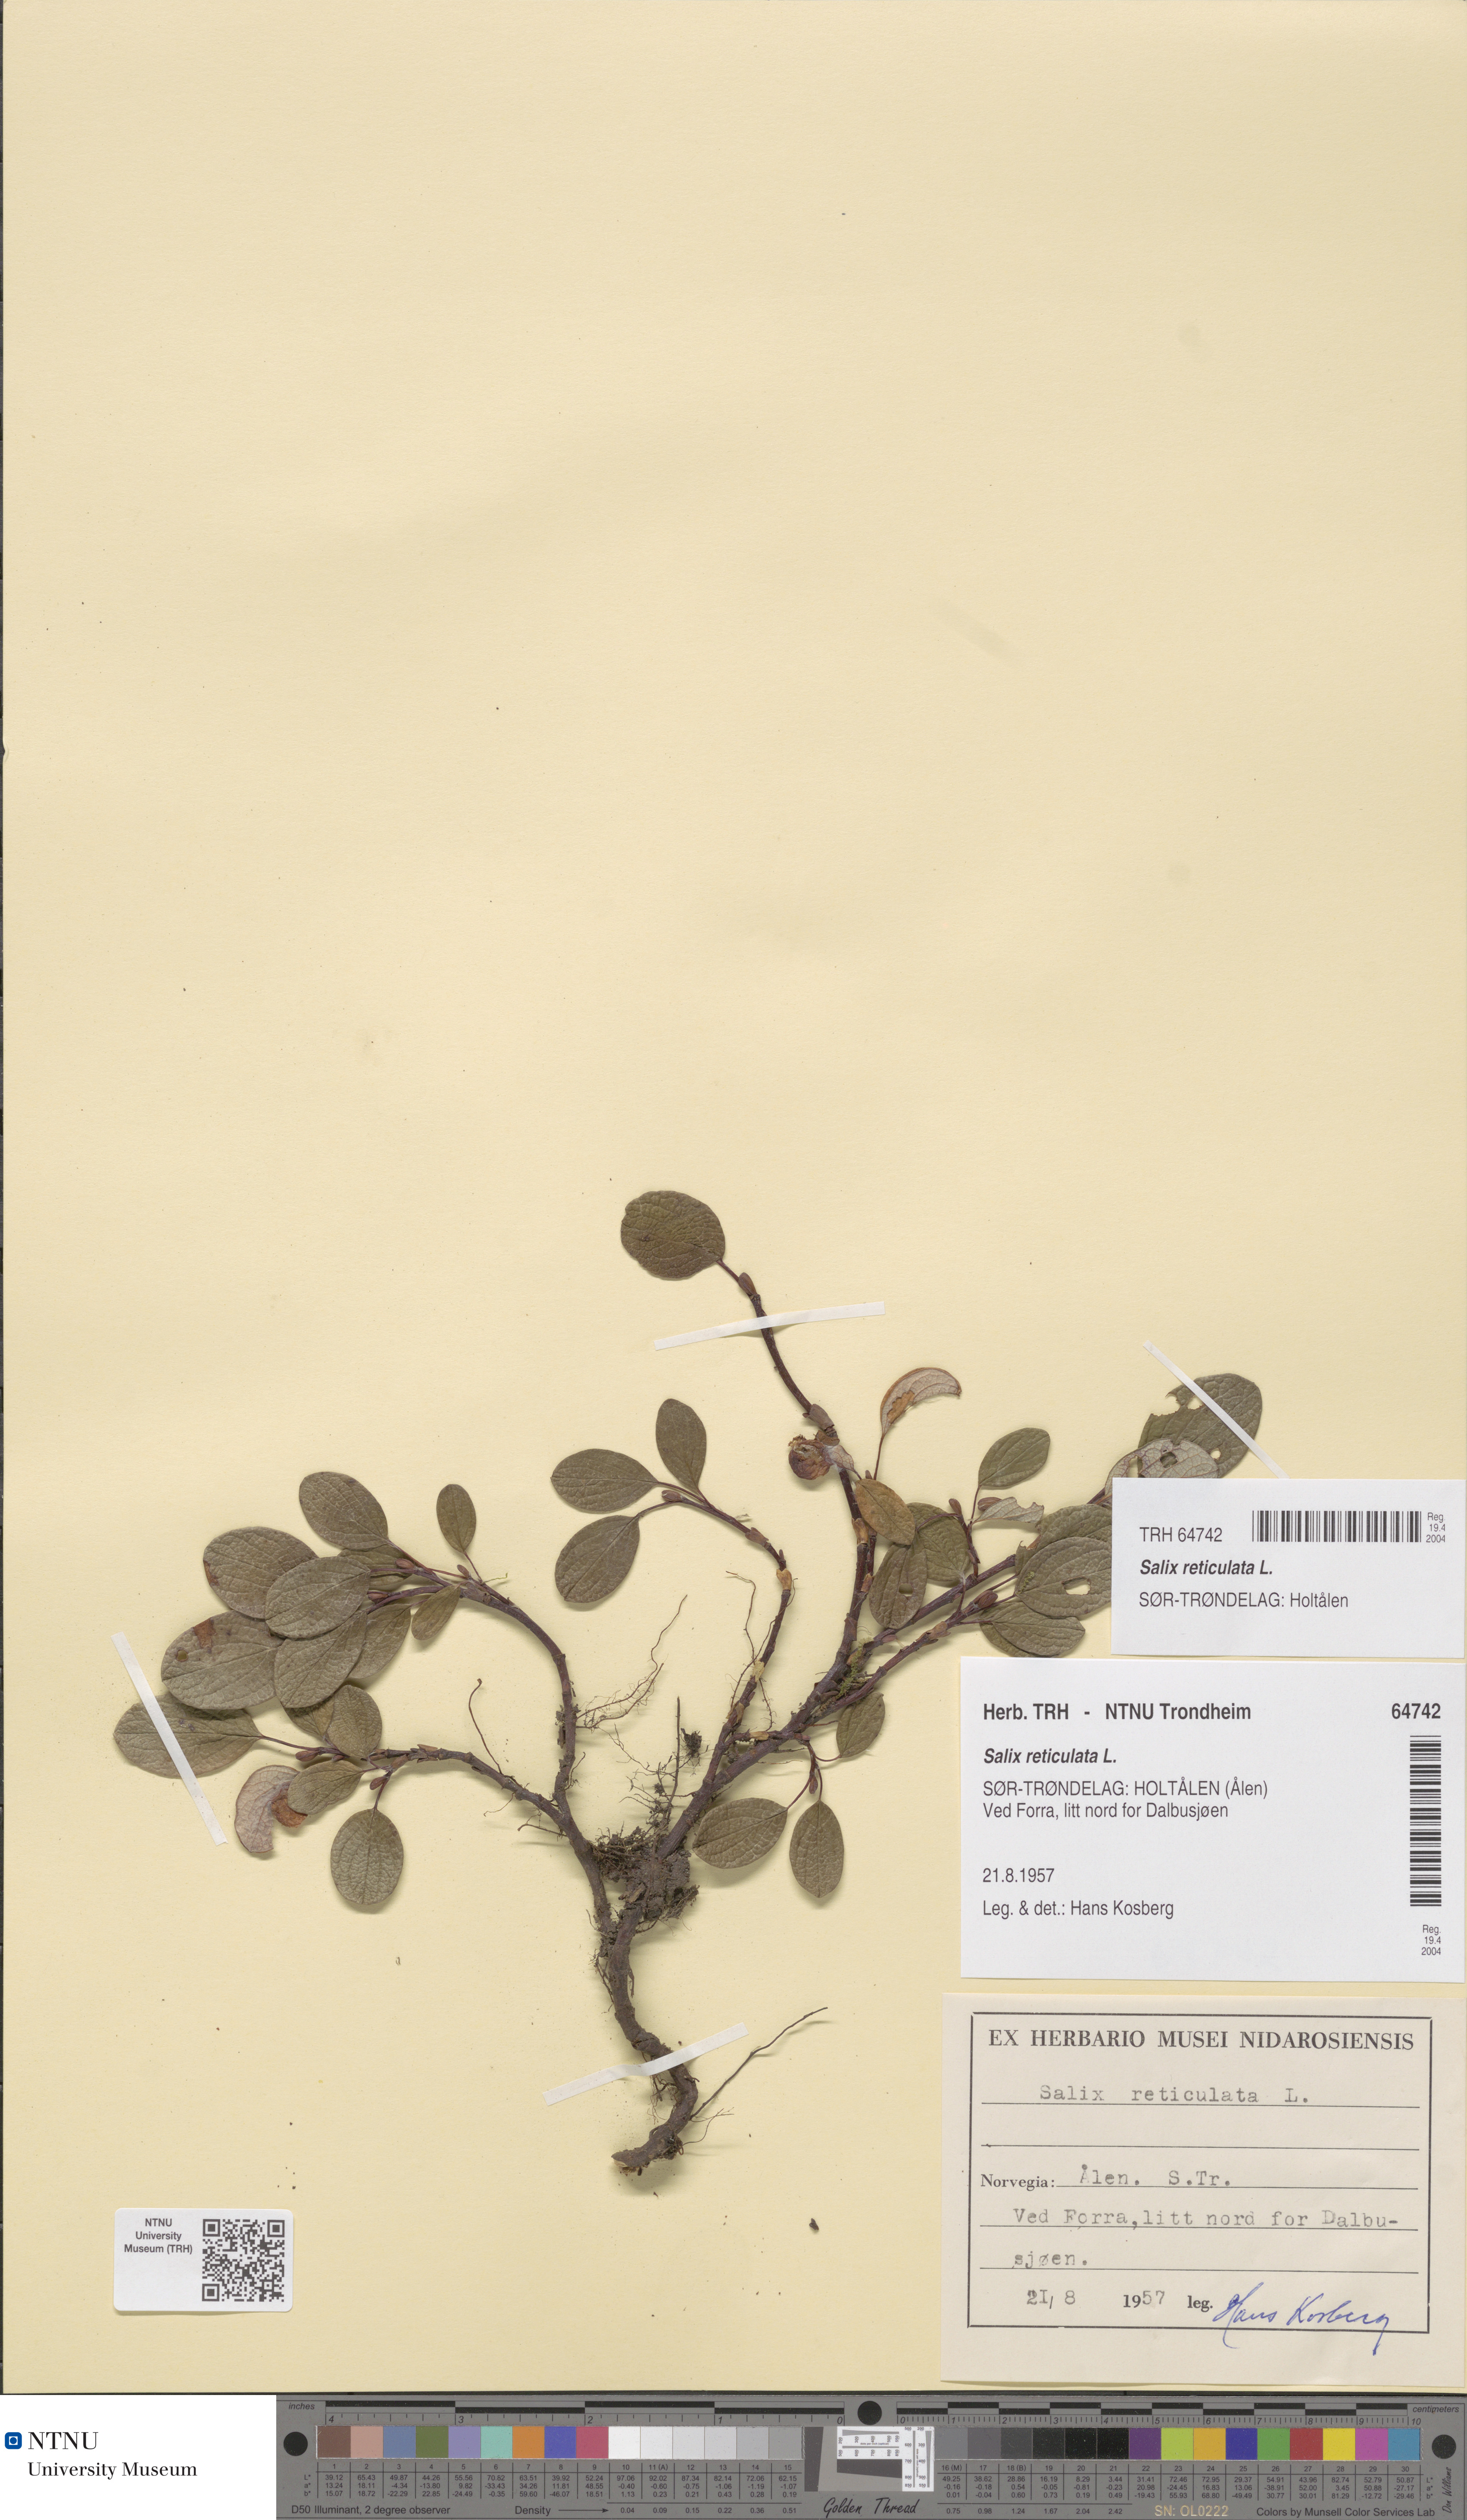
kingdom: Plantae
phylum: Tracheophyta
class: Magnoliopsida
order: Malpighiales
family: Salicaceae
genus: Salix
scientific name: Salix reticulata
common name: Net-leaved willow
